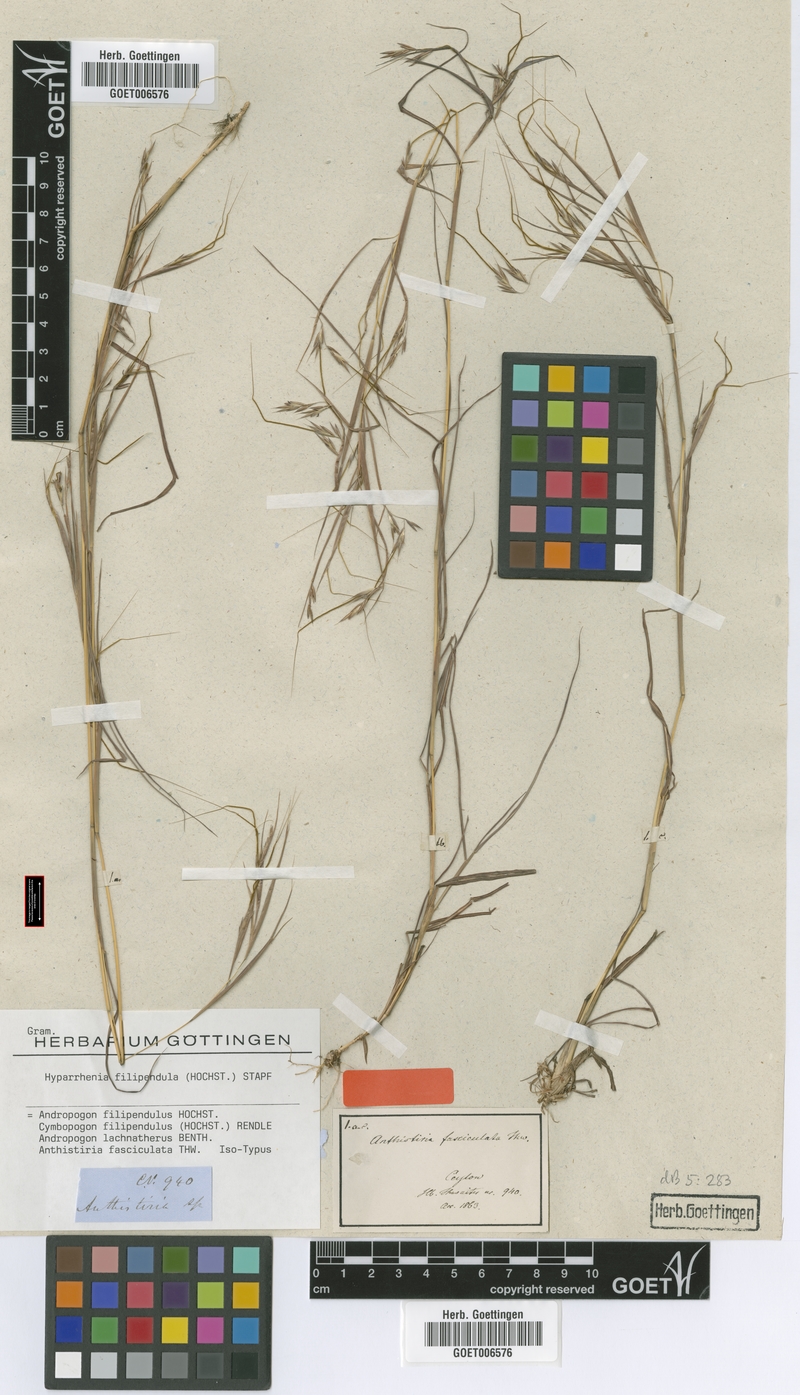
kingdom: Plantae
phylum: Tracheophyta
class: Liliopsida
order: Poales
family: Poaceae
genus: Hyparrhenia
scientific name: Hyparrhenia filipendula
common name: Tambookie grass
